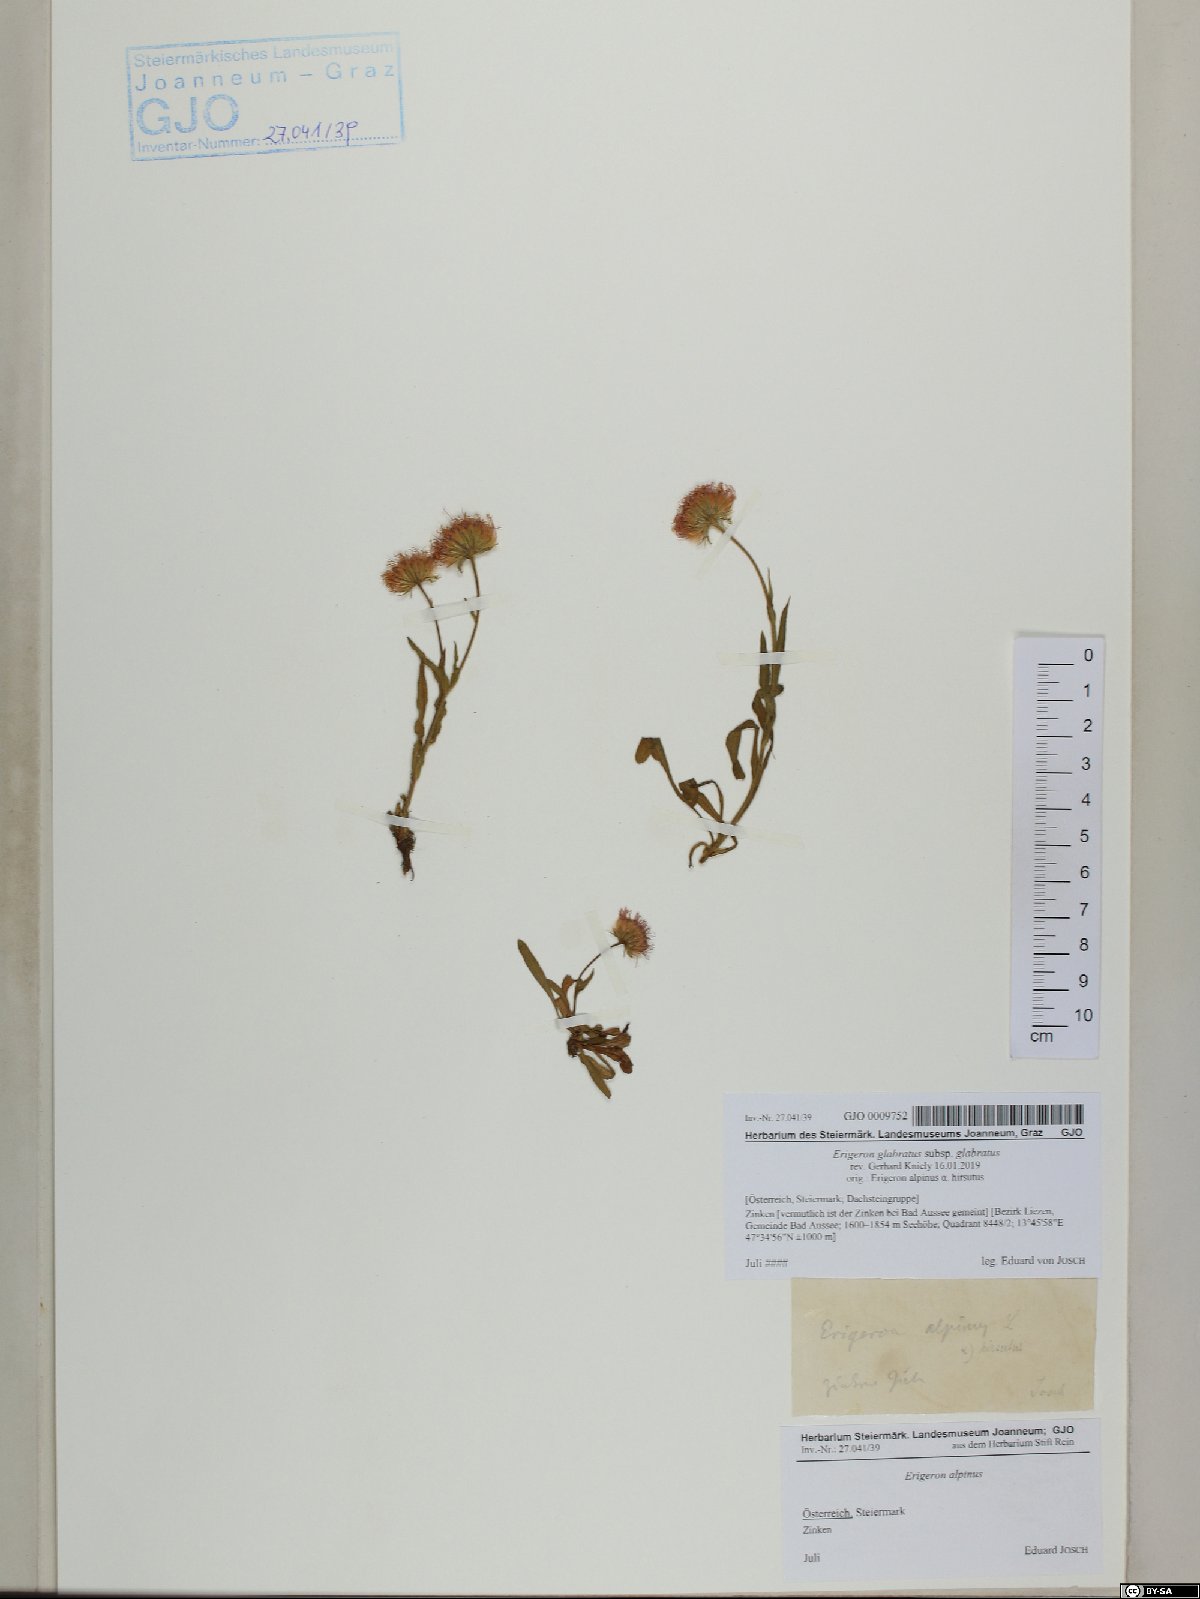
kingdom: Plantae
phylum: Tracheophyta
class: Magnoliopsida
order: Asterales
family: Asteraceae
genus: Erigeron
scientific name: Erigeron glabratus
